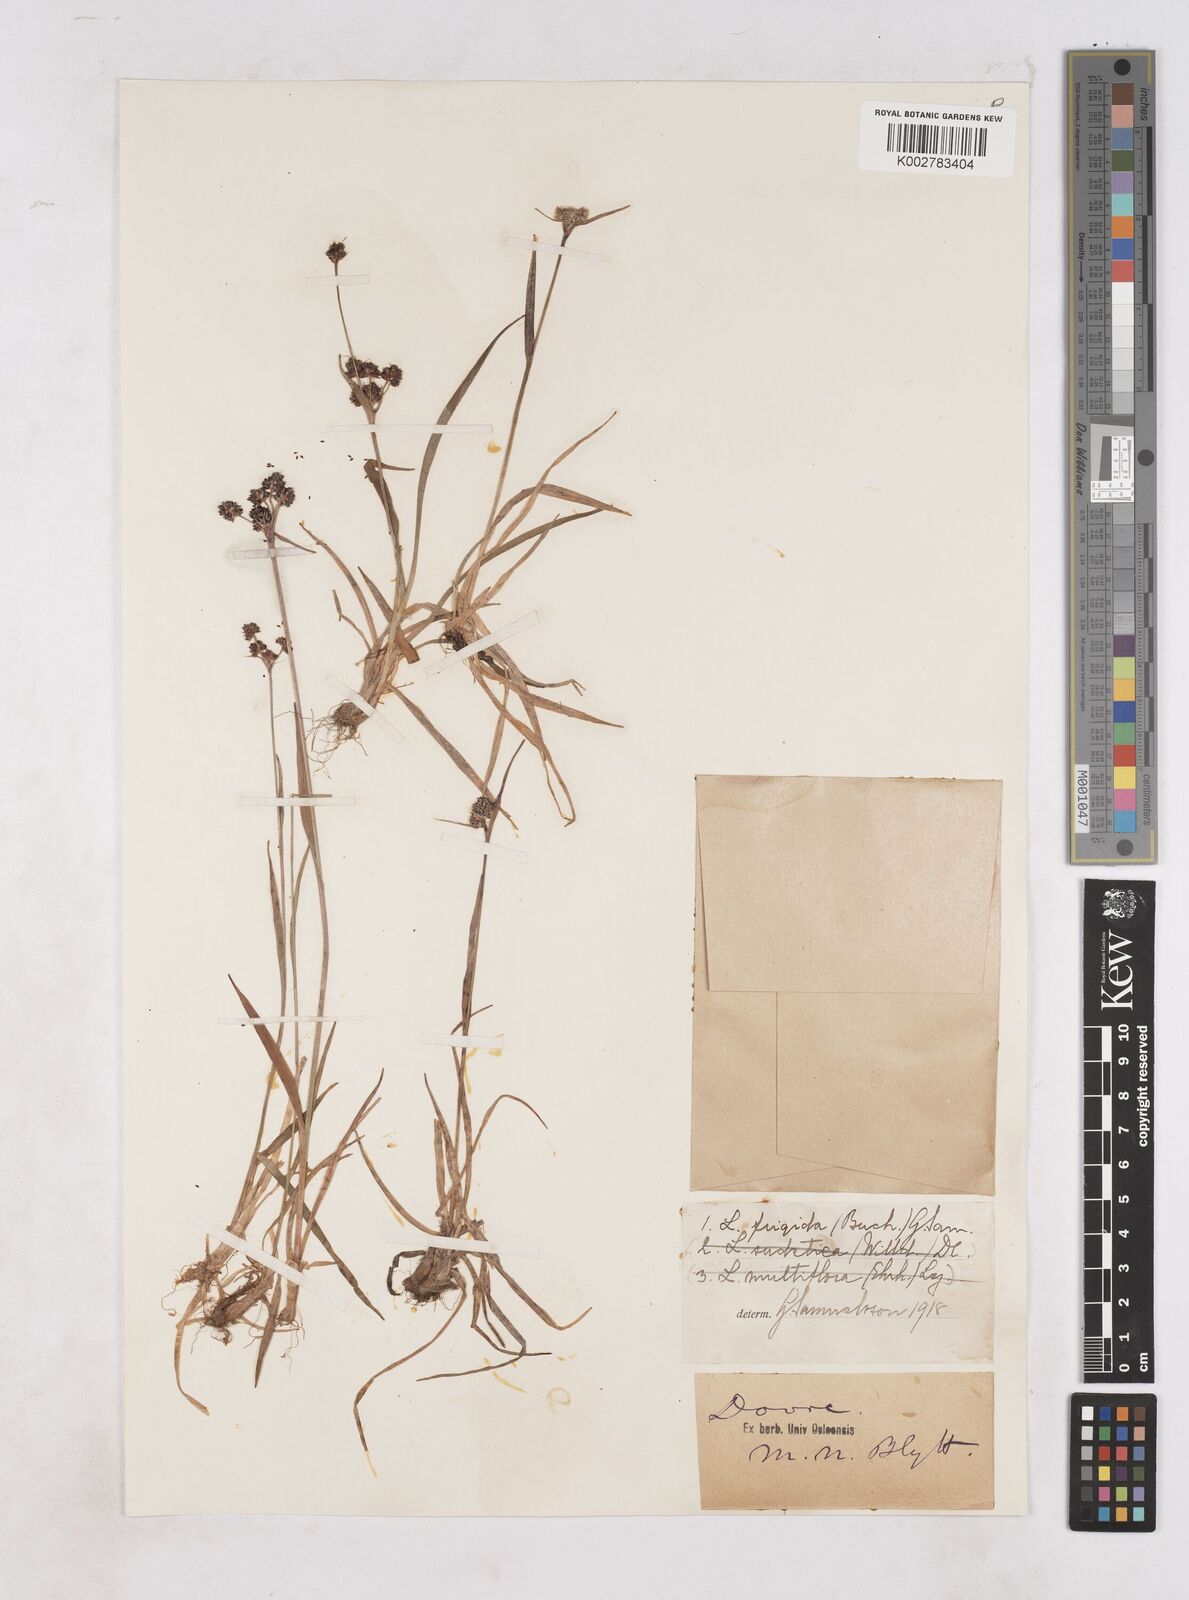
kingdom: Plantae
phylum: Tracheophyta
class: Liliopsida
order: Poales
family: Juncaceae
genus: Luzula
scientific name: Luzula multiflora
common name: Heath wood-rush
